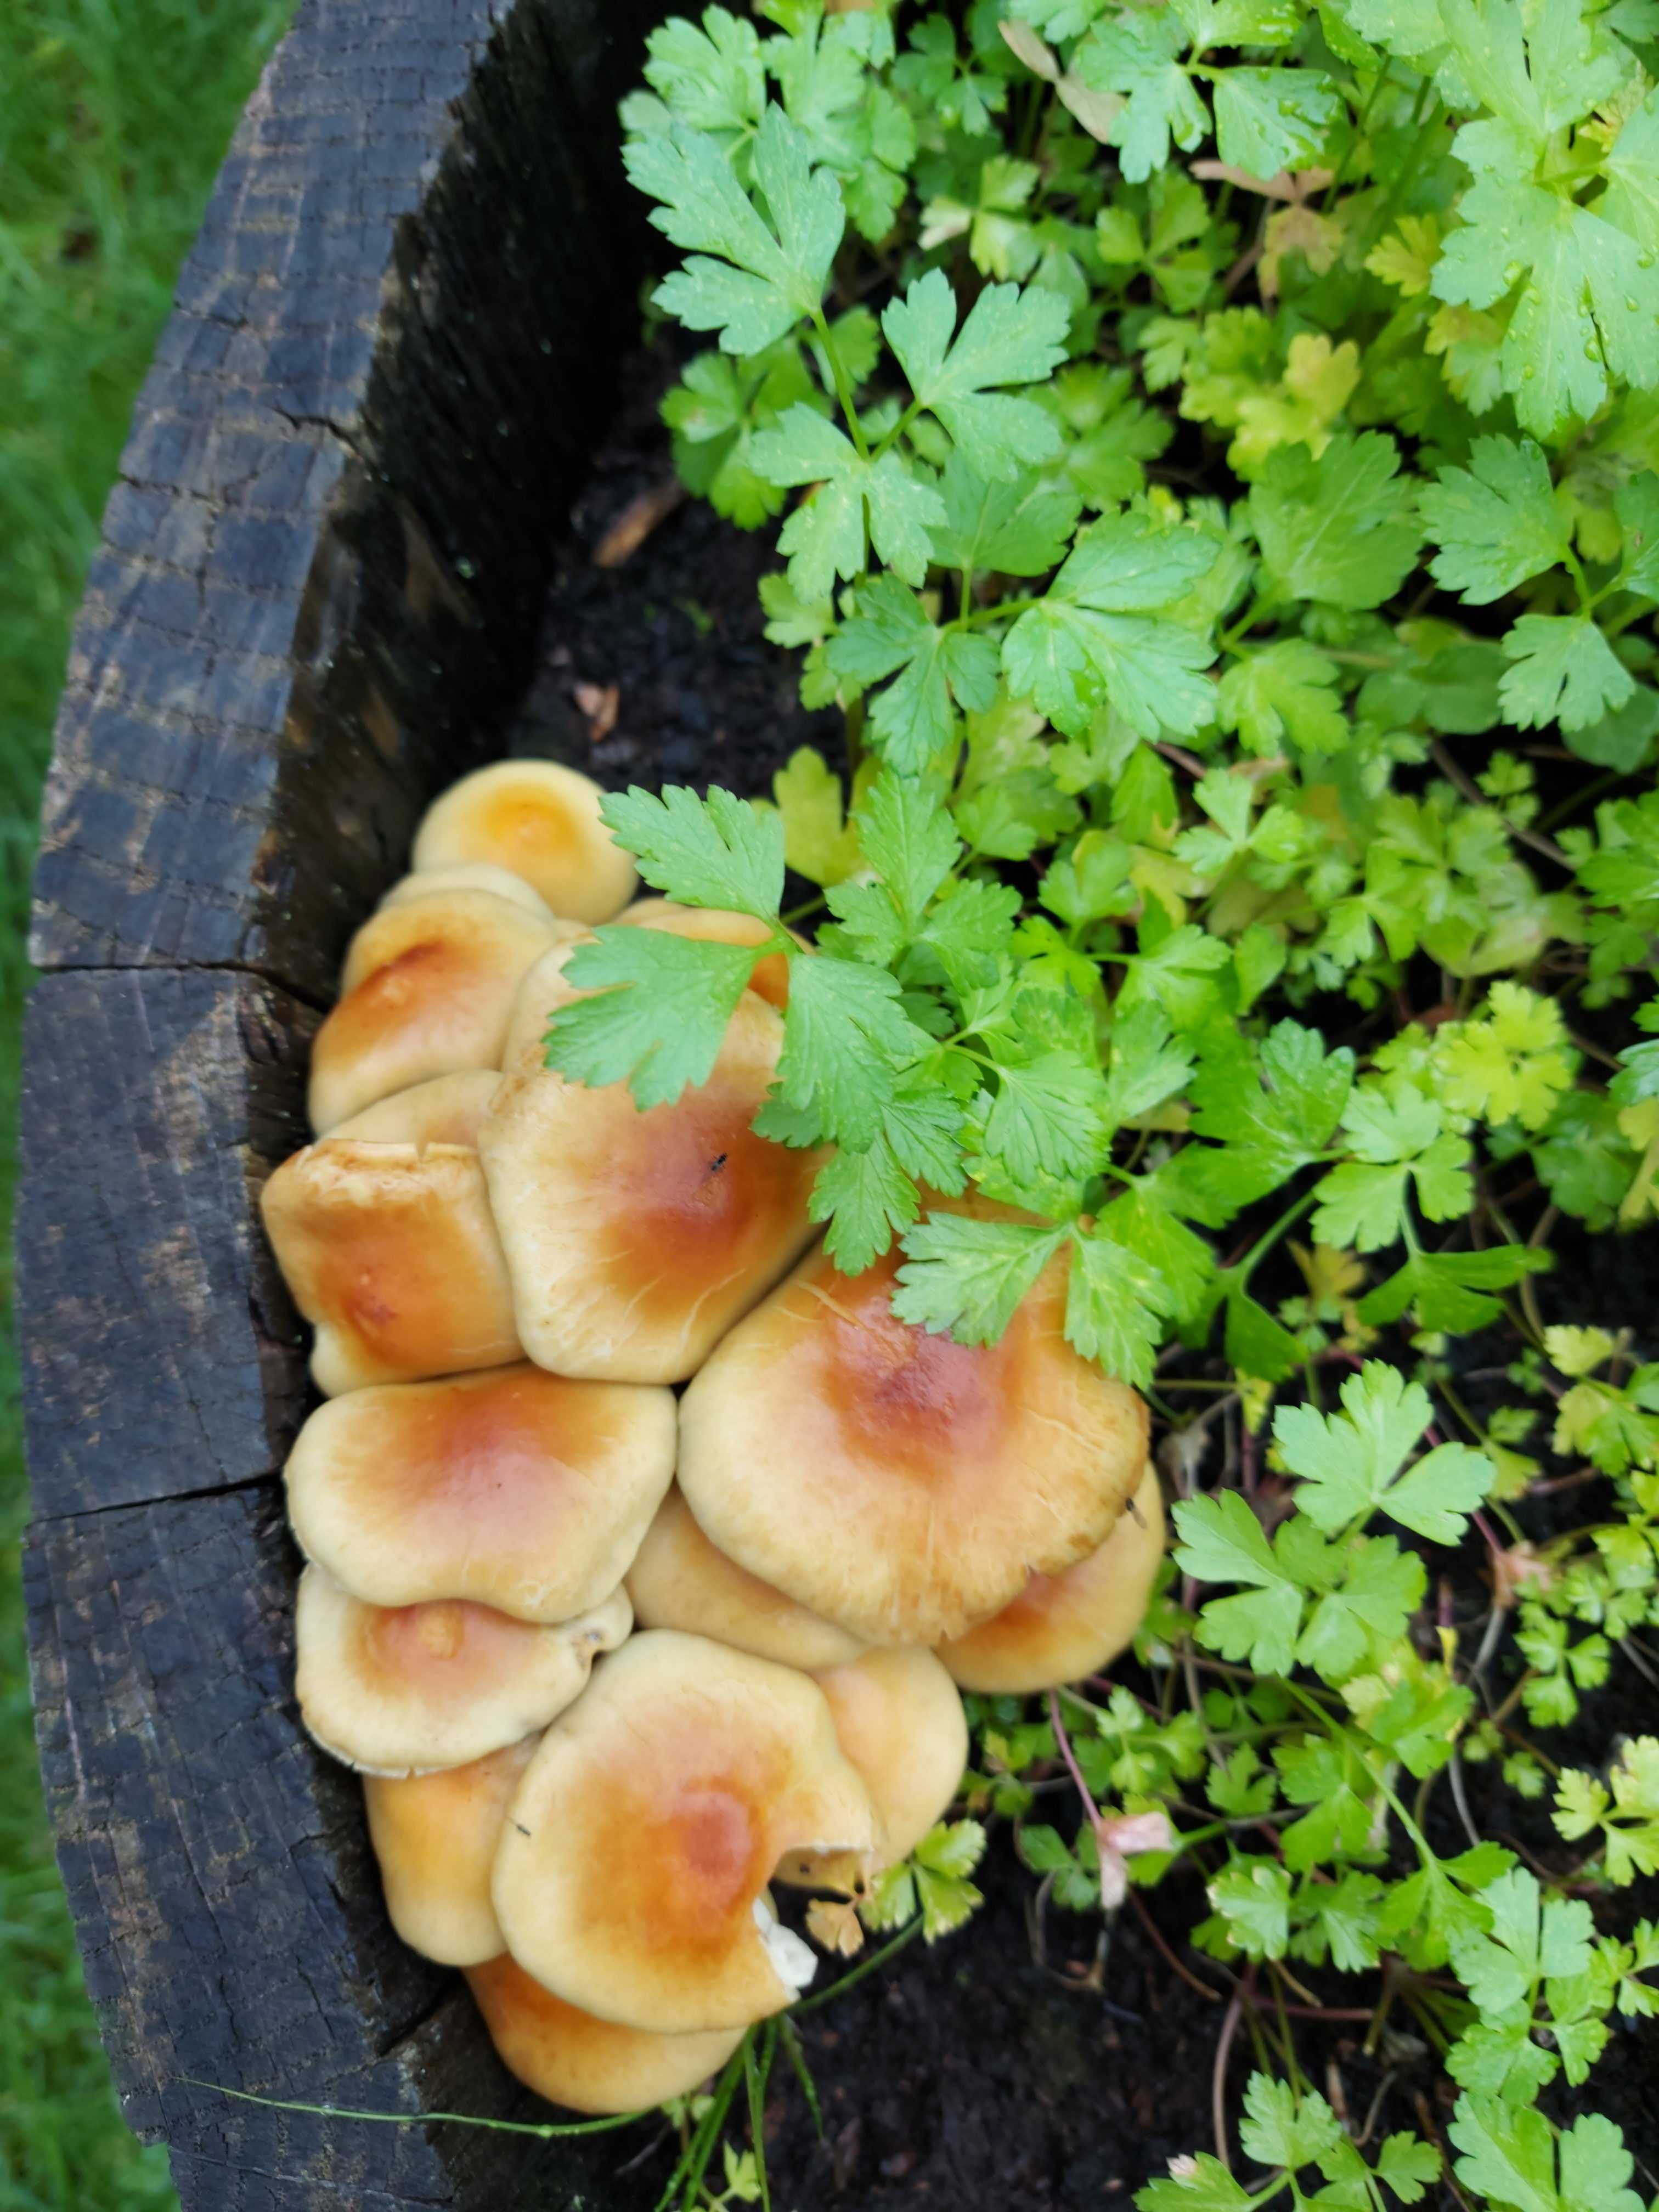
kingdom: Fungi
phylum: Basidiomycota
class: Agaricomycetes
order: Agaricales
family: Strophariaceae
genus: Hypholoma
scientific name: Hypholoma fasciculare
